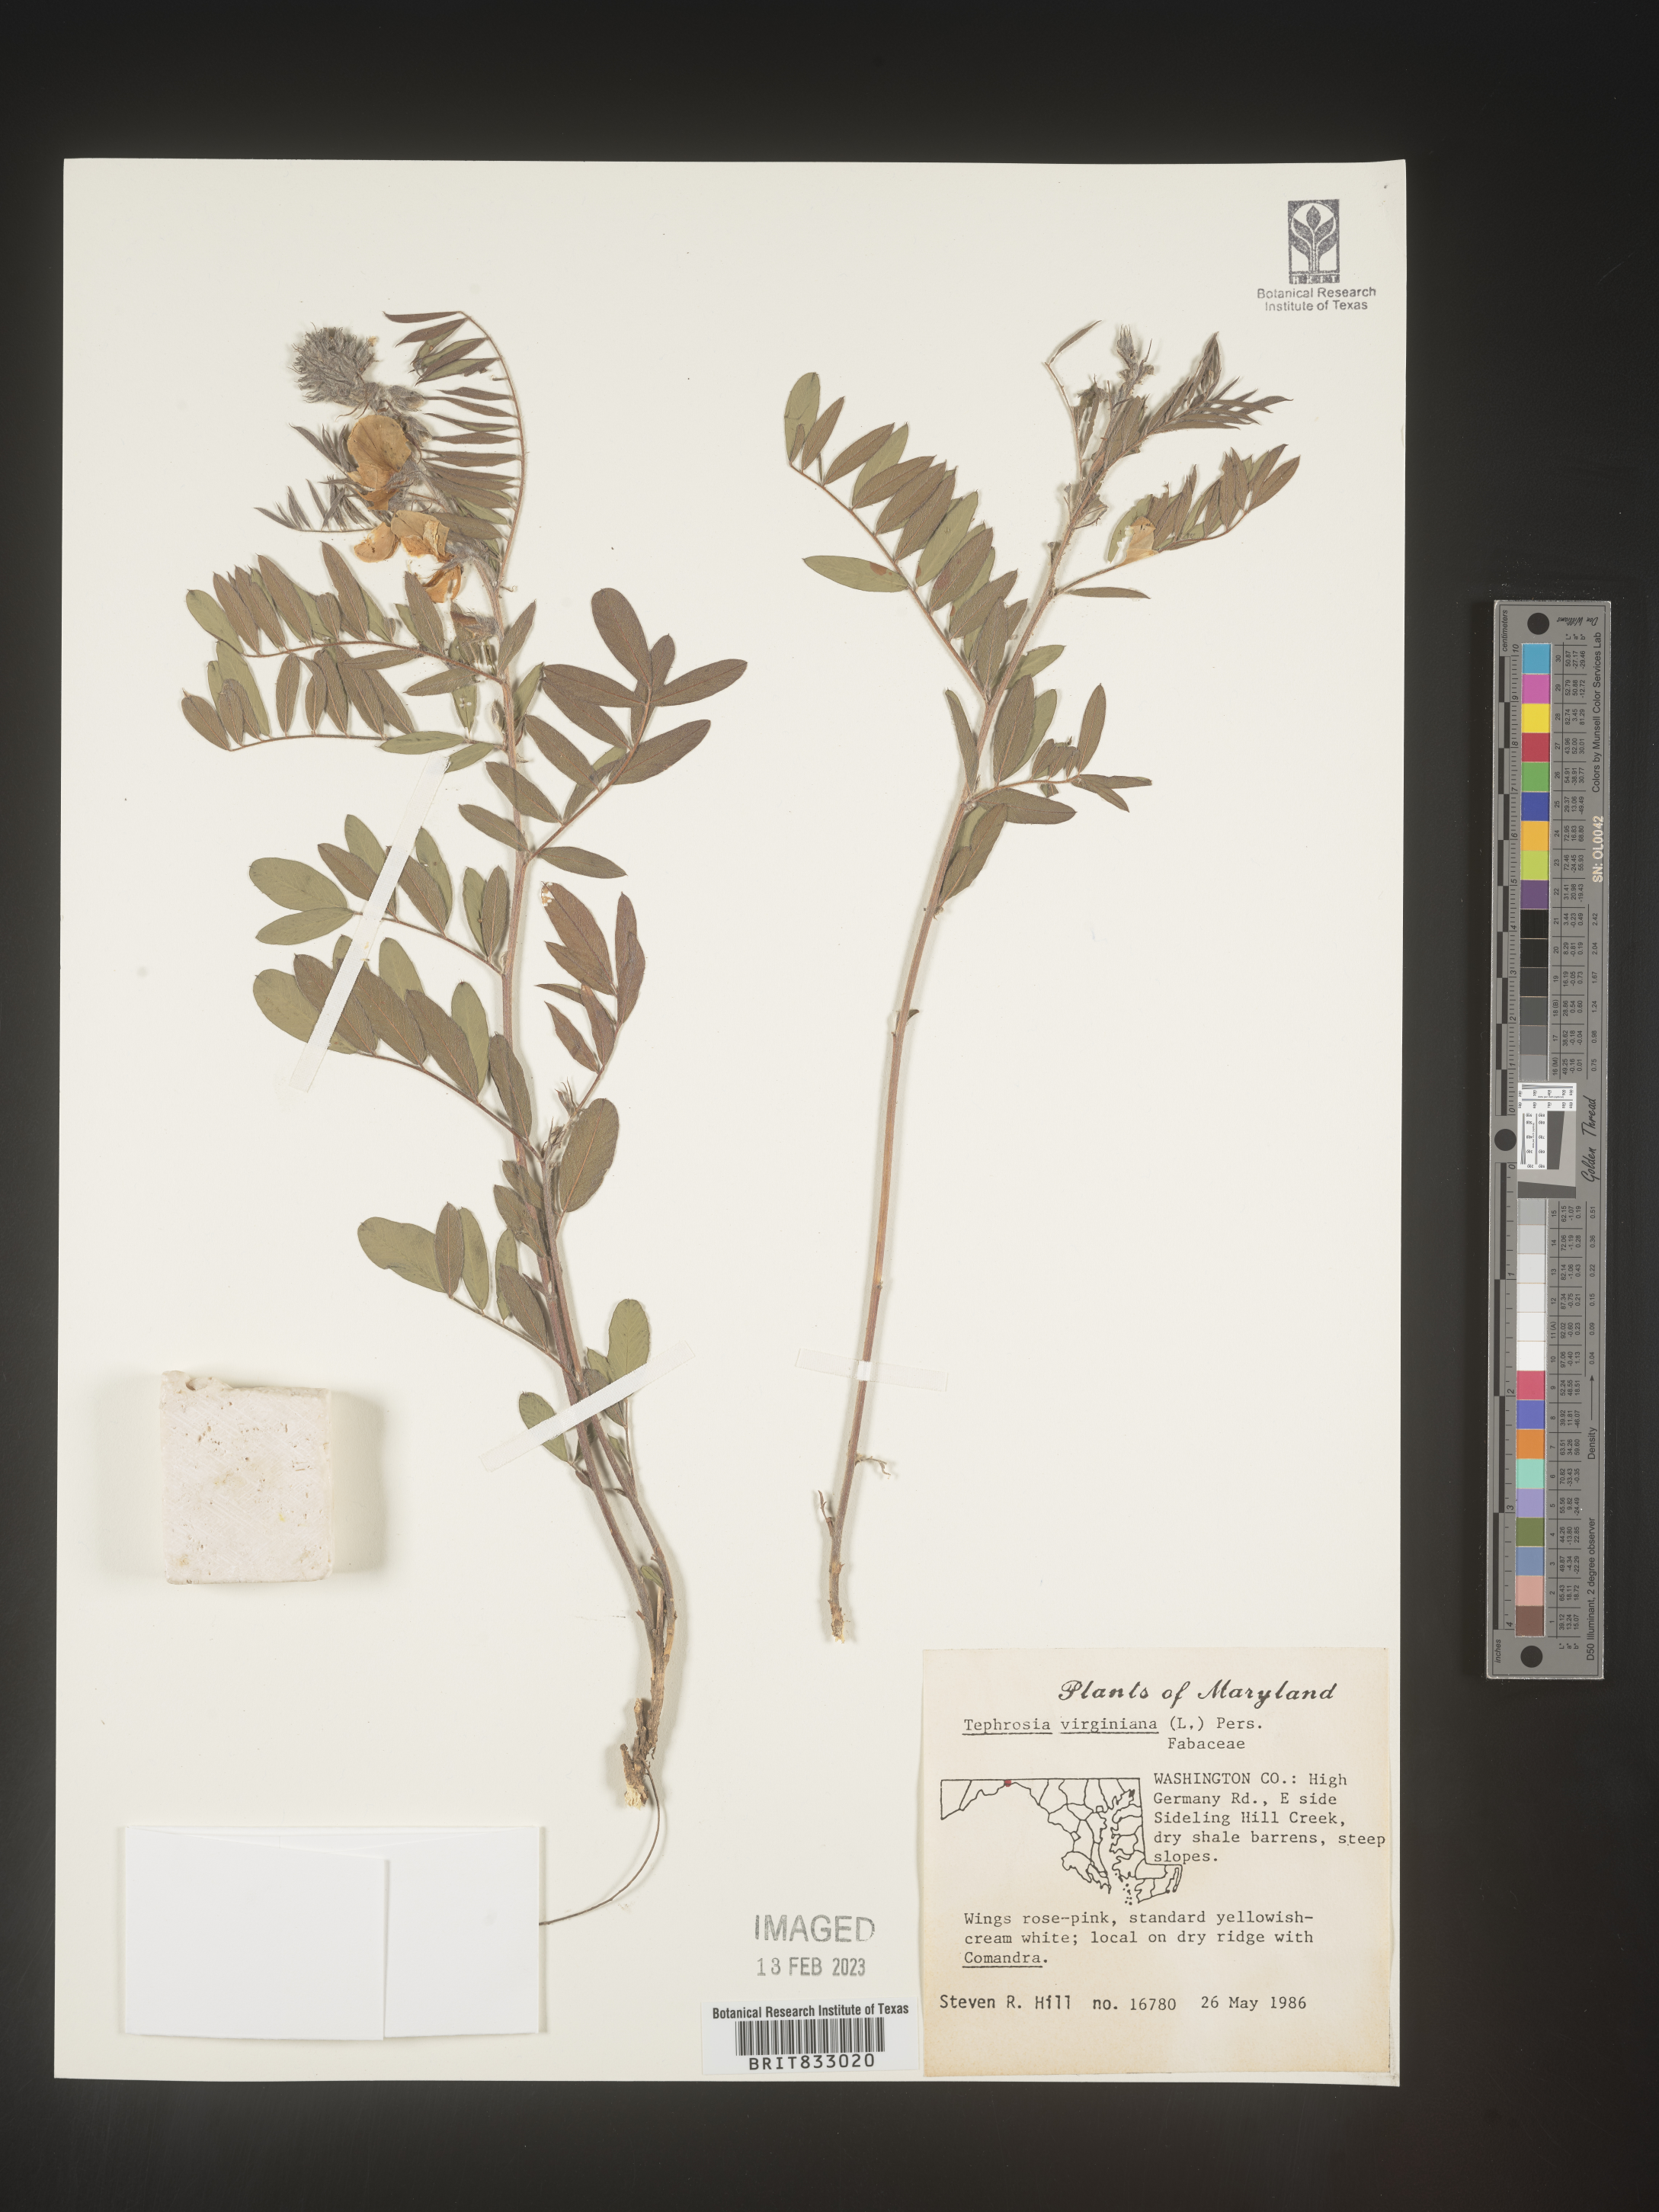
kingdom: Plantae
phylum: Tracheophyta
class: Magnoliopsida
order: Fabales
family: Fabaceae
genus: Tephrosia
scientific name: Tephrosia virginiana
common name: Rabbit-pea
